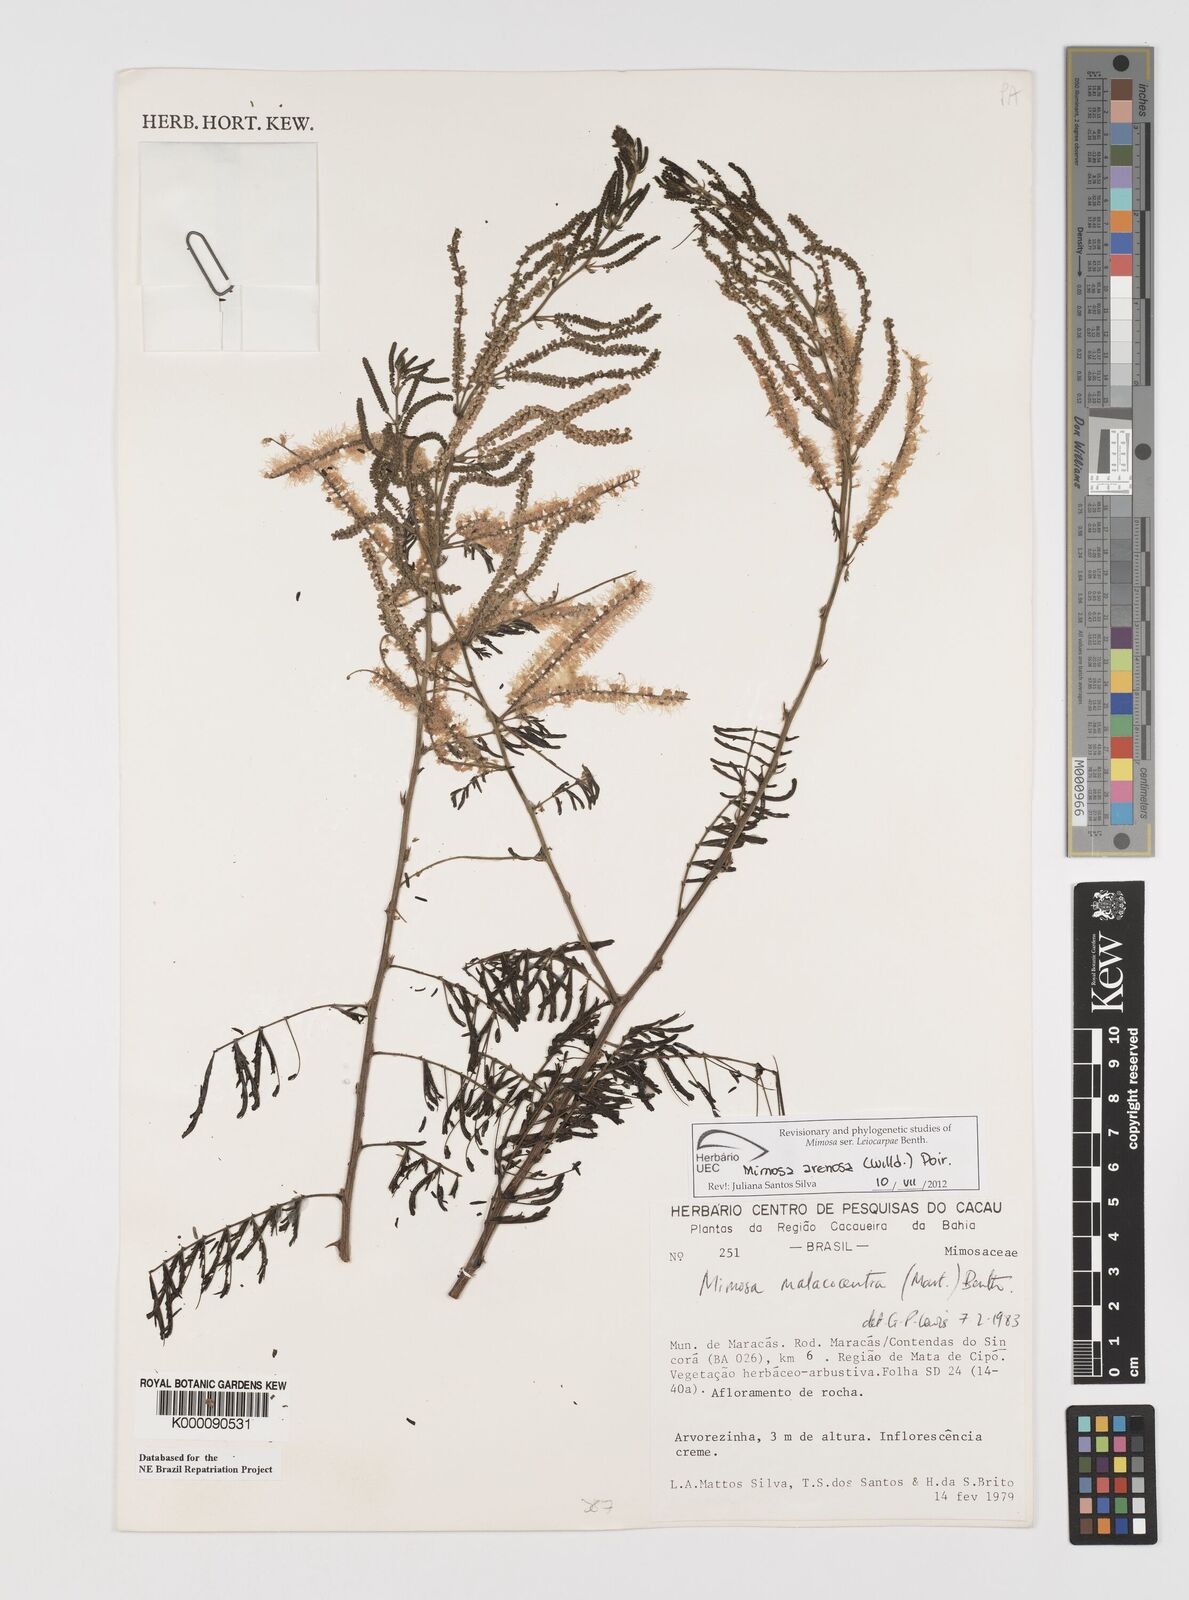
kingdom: Plantae
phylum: Tracheophyta
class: Magnoliopsida
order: Fabales
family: Fabaceae
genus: Mimosa
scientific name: Mimosa arenosa
